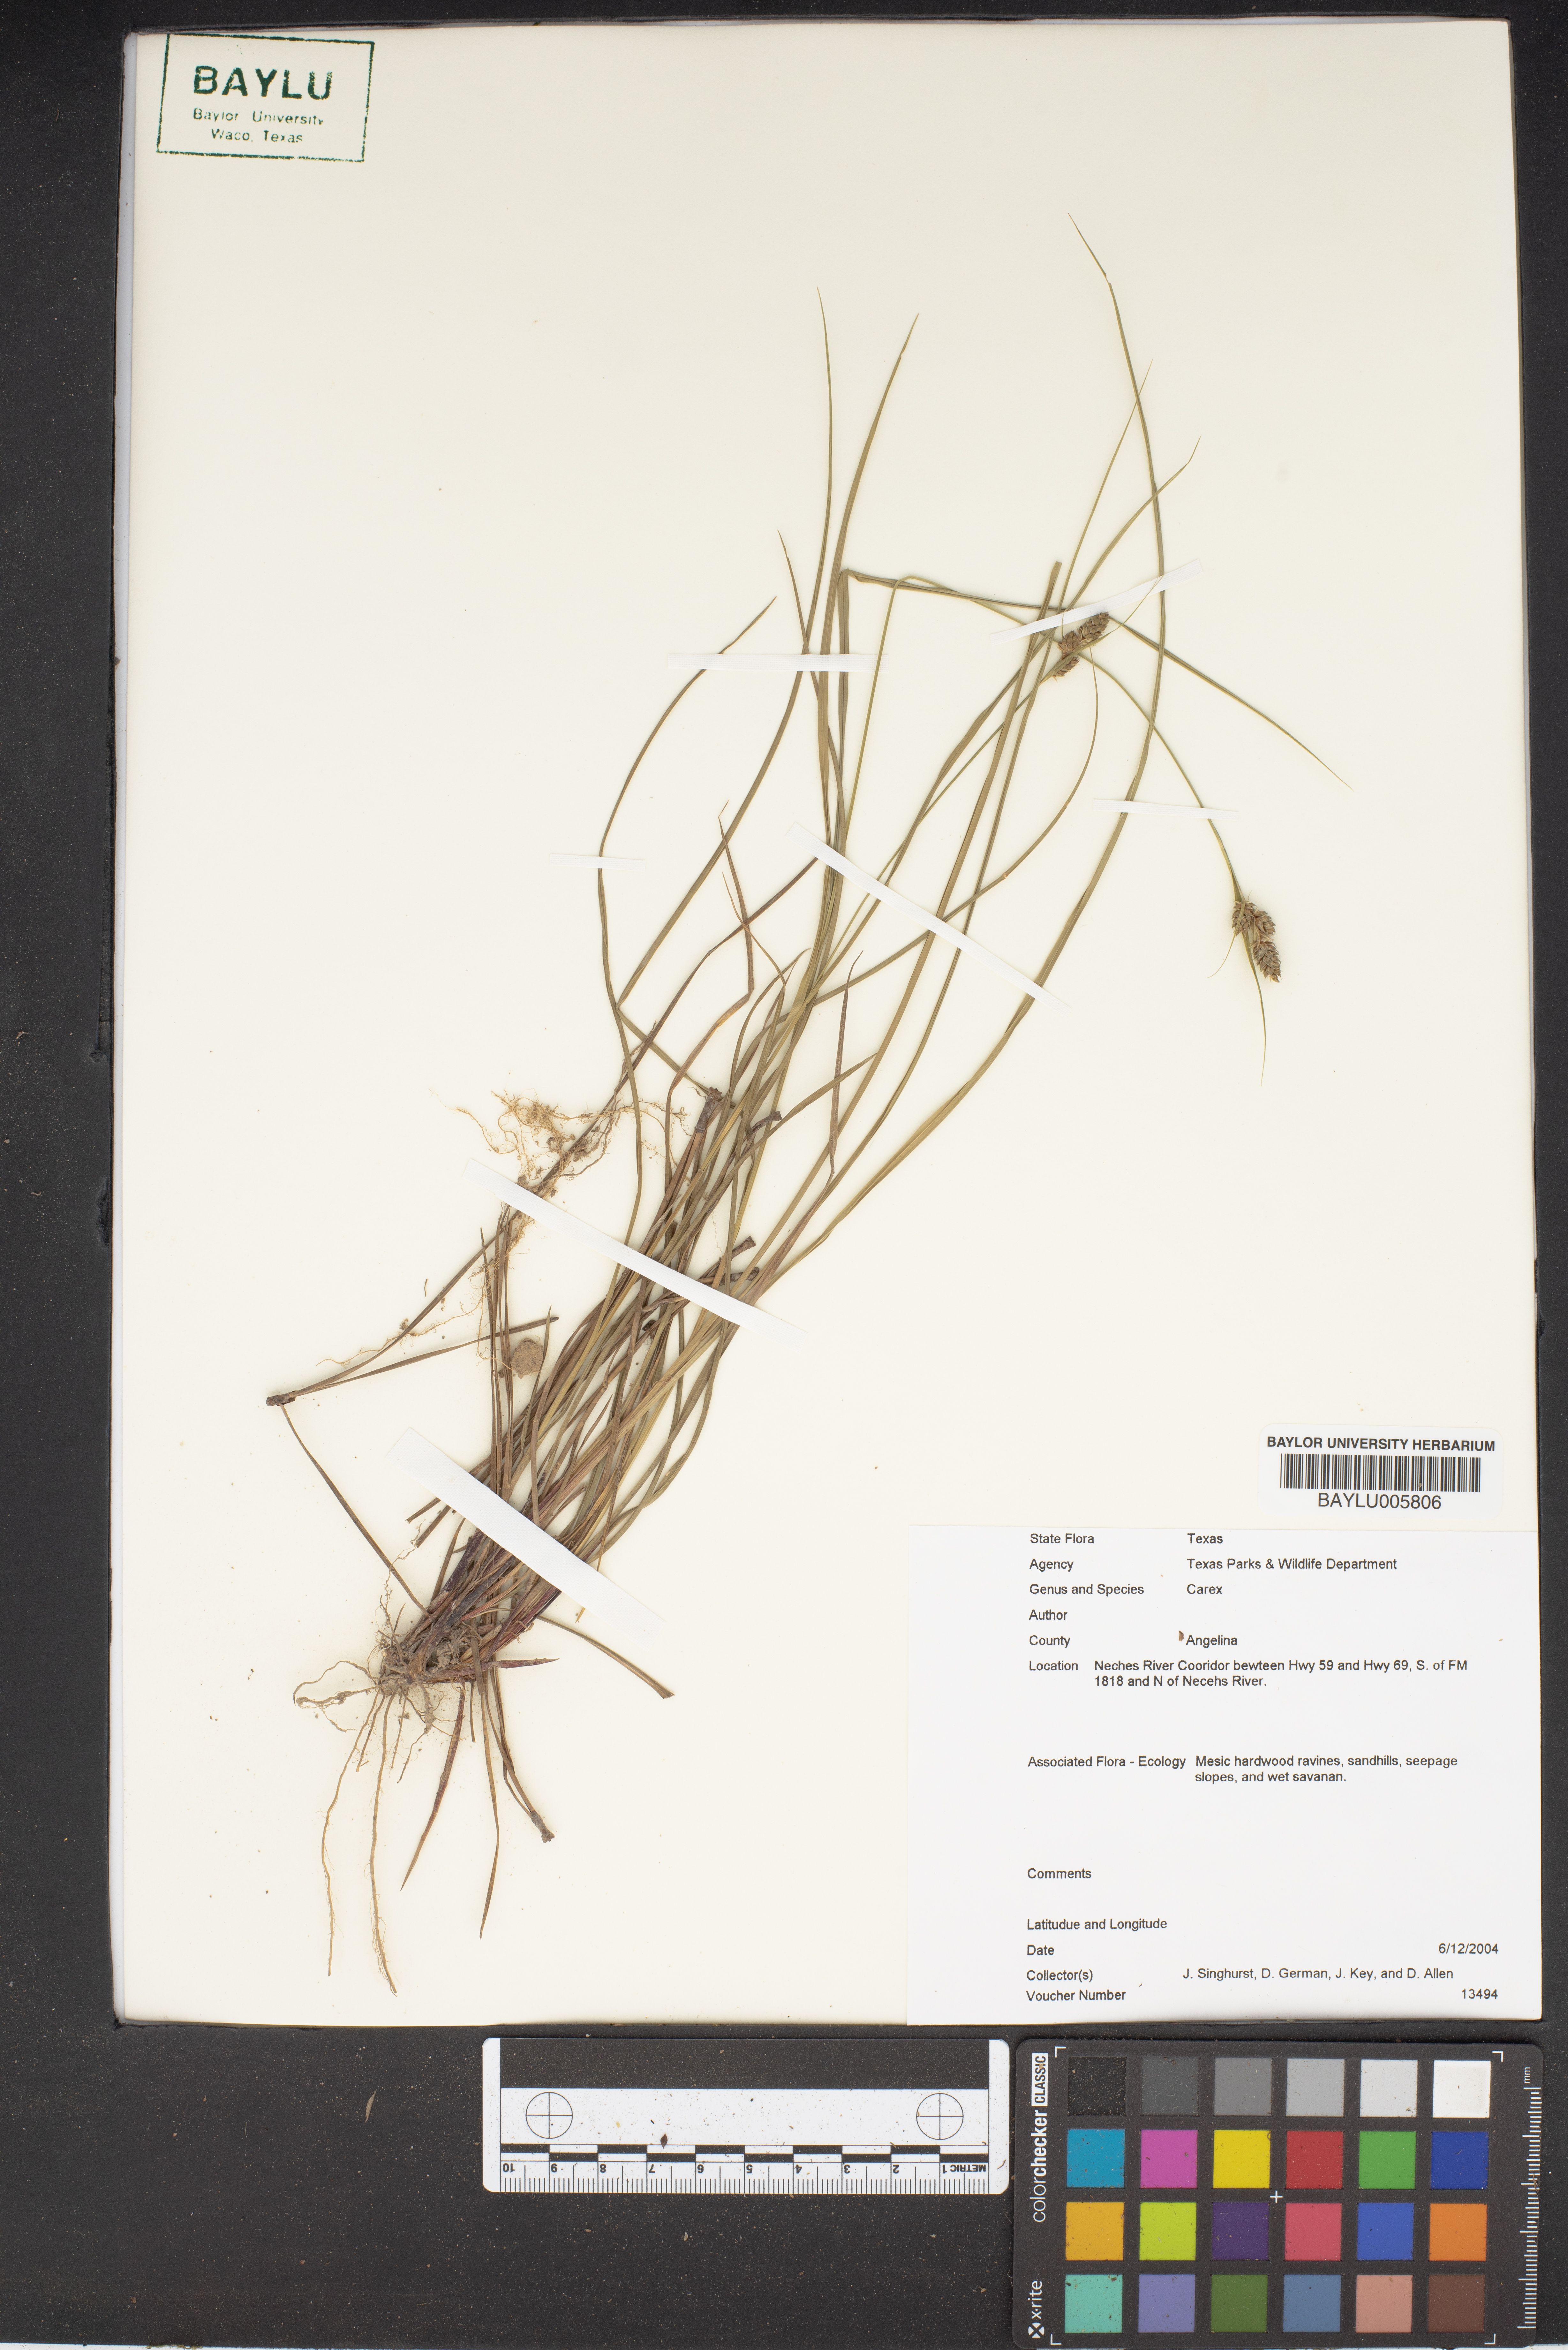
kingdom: Plantae
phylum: Tracheophyta
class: Liliopsida
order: Poales
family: Cyperaceae
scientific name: Cyperaceae
